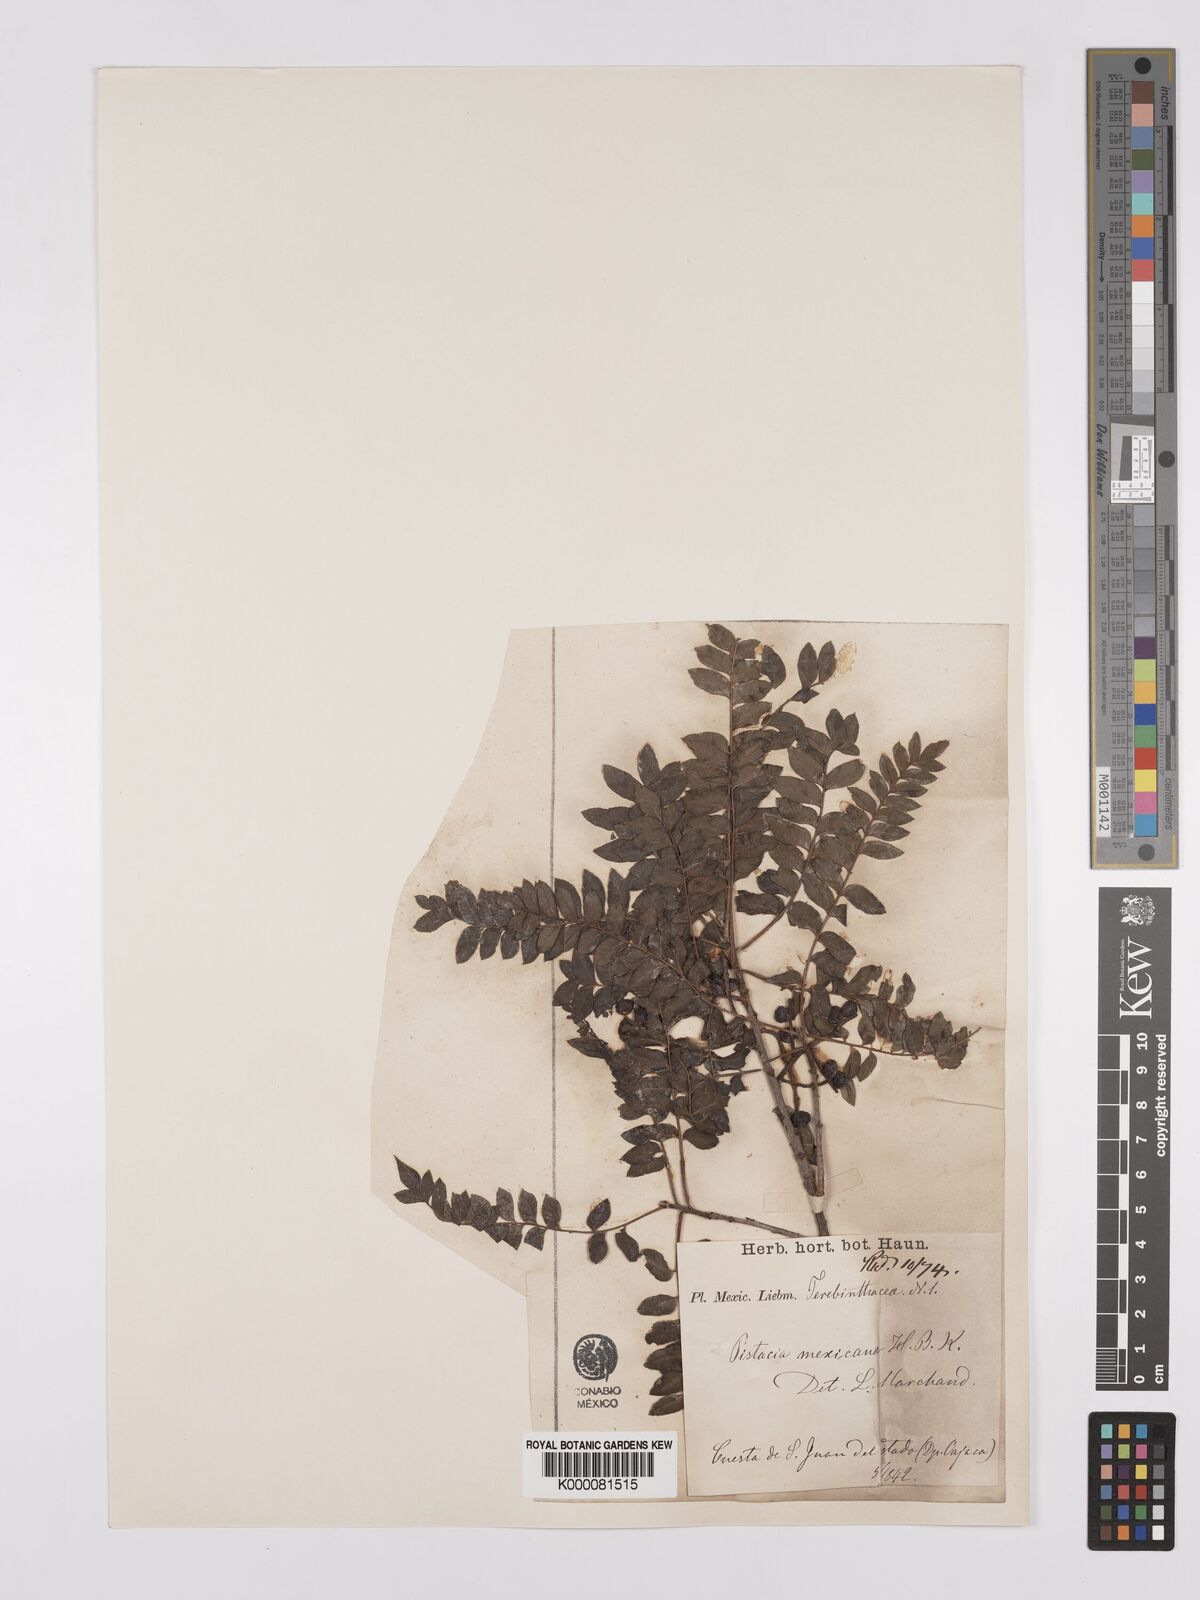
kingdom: Plantae
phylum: Tracheophyta
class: Magnoliopsida
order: Sapindales
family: Anacardiaceae
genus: Pistacia
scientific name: Pistacia mexicana
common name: Mexican pistachio
